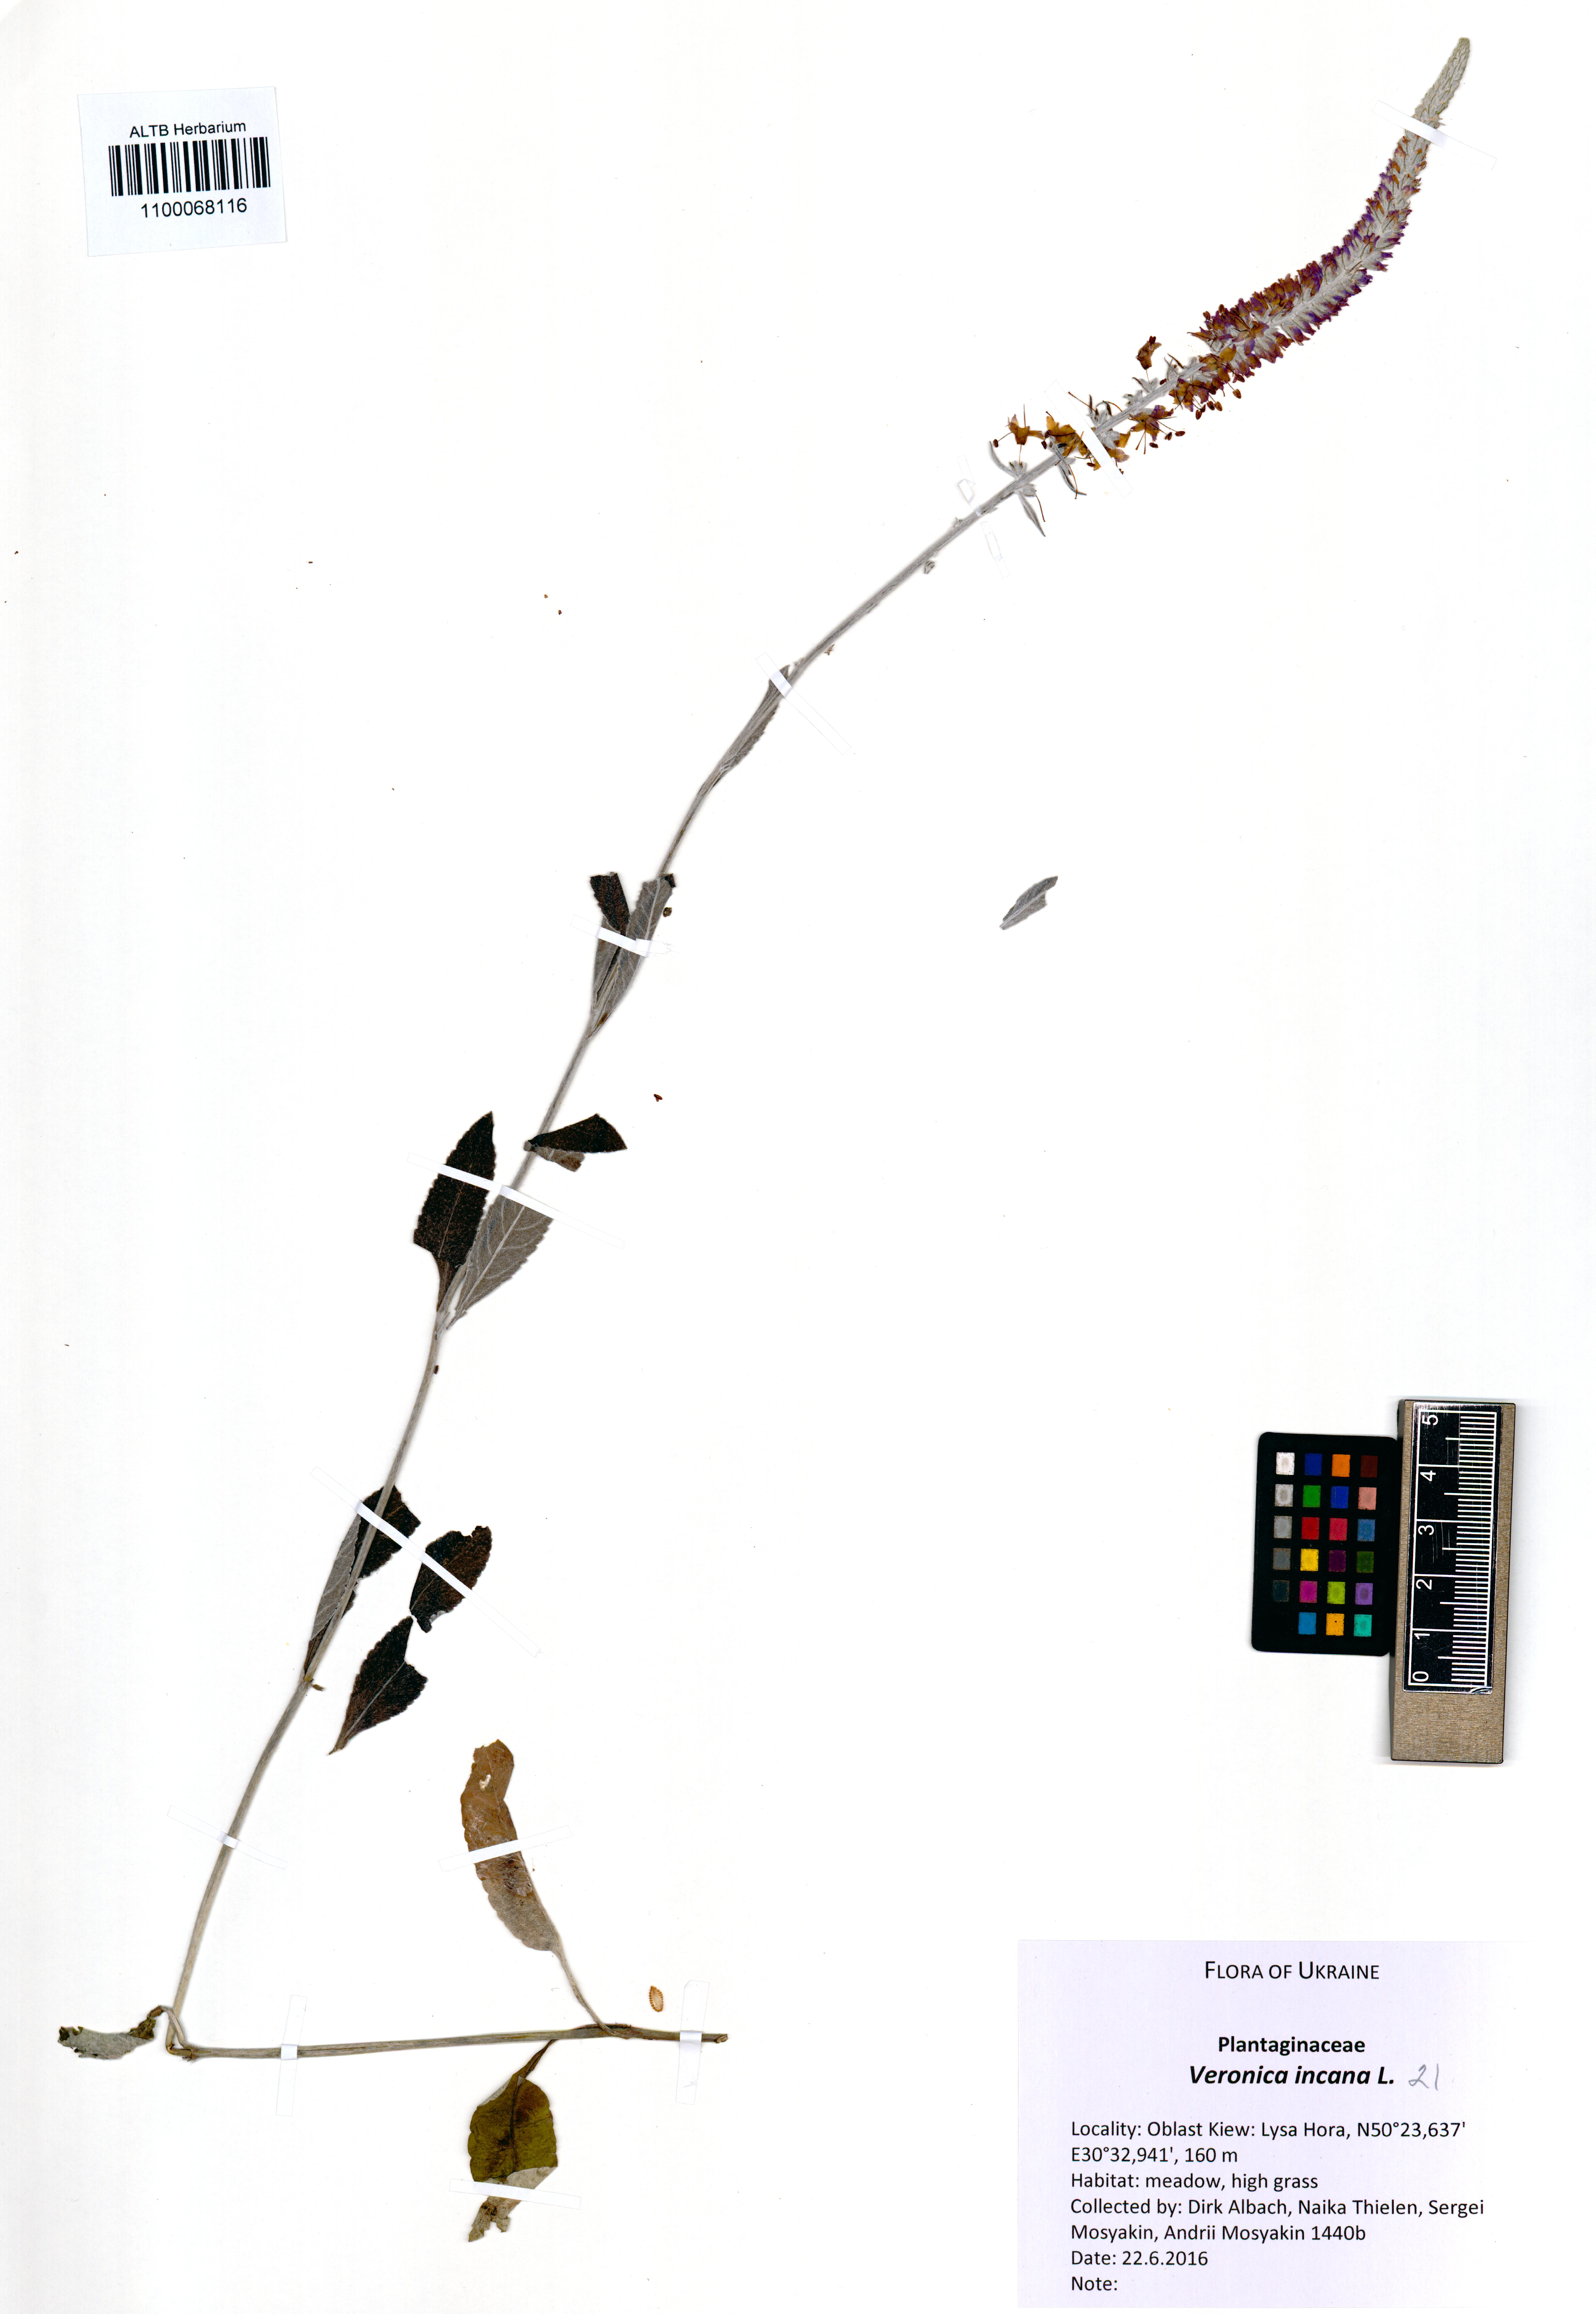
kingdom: Plantae
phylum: Tracheophyta
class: Magnoliopsida
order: Lamiales
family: Plantaginaceae
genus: Veronica
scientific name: Veronica incana
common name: Silver speedwell
